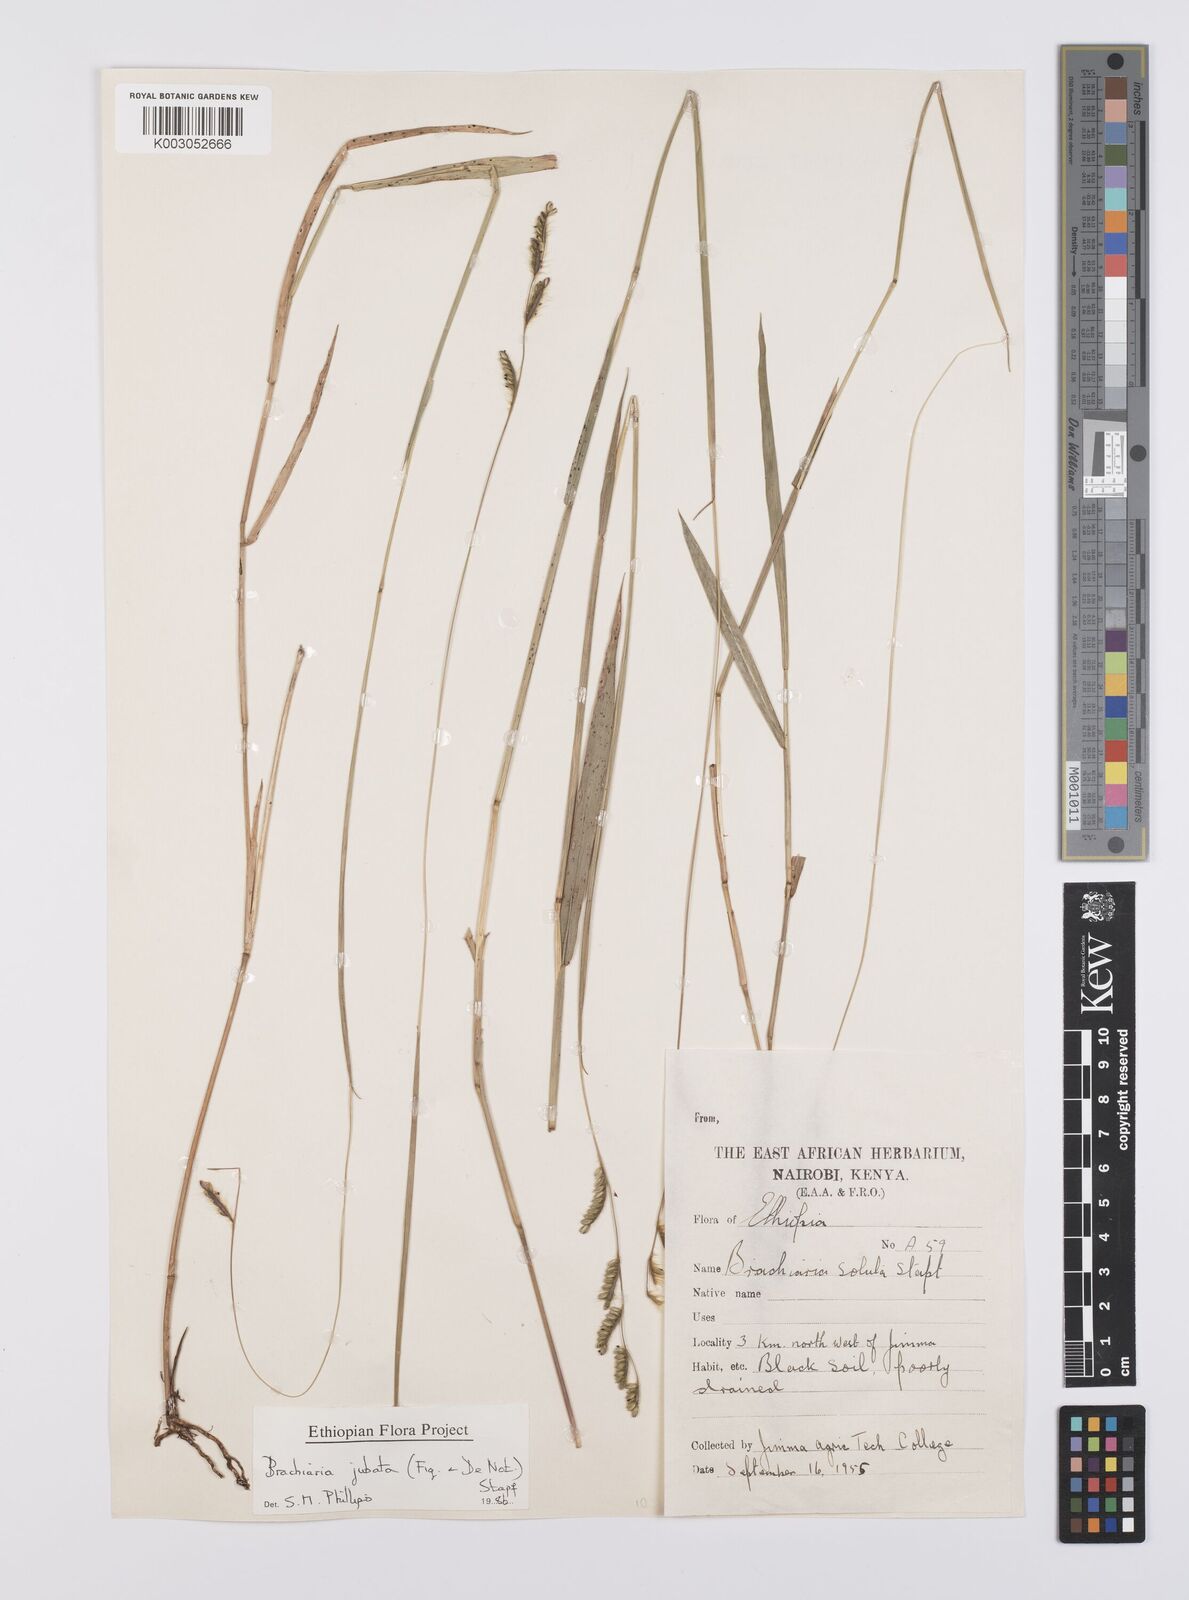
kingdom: Plantae
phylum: Tracheophyta
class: Liliopsida
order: Poales
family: Poaceae
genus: Urochloa
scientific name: Urochloa jubata
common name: Buffalograss
